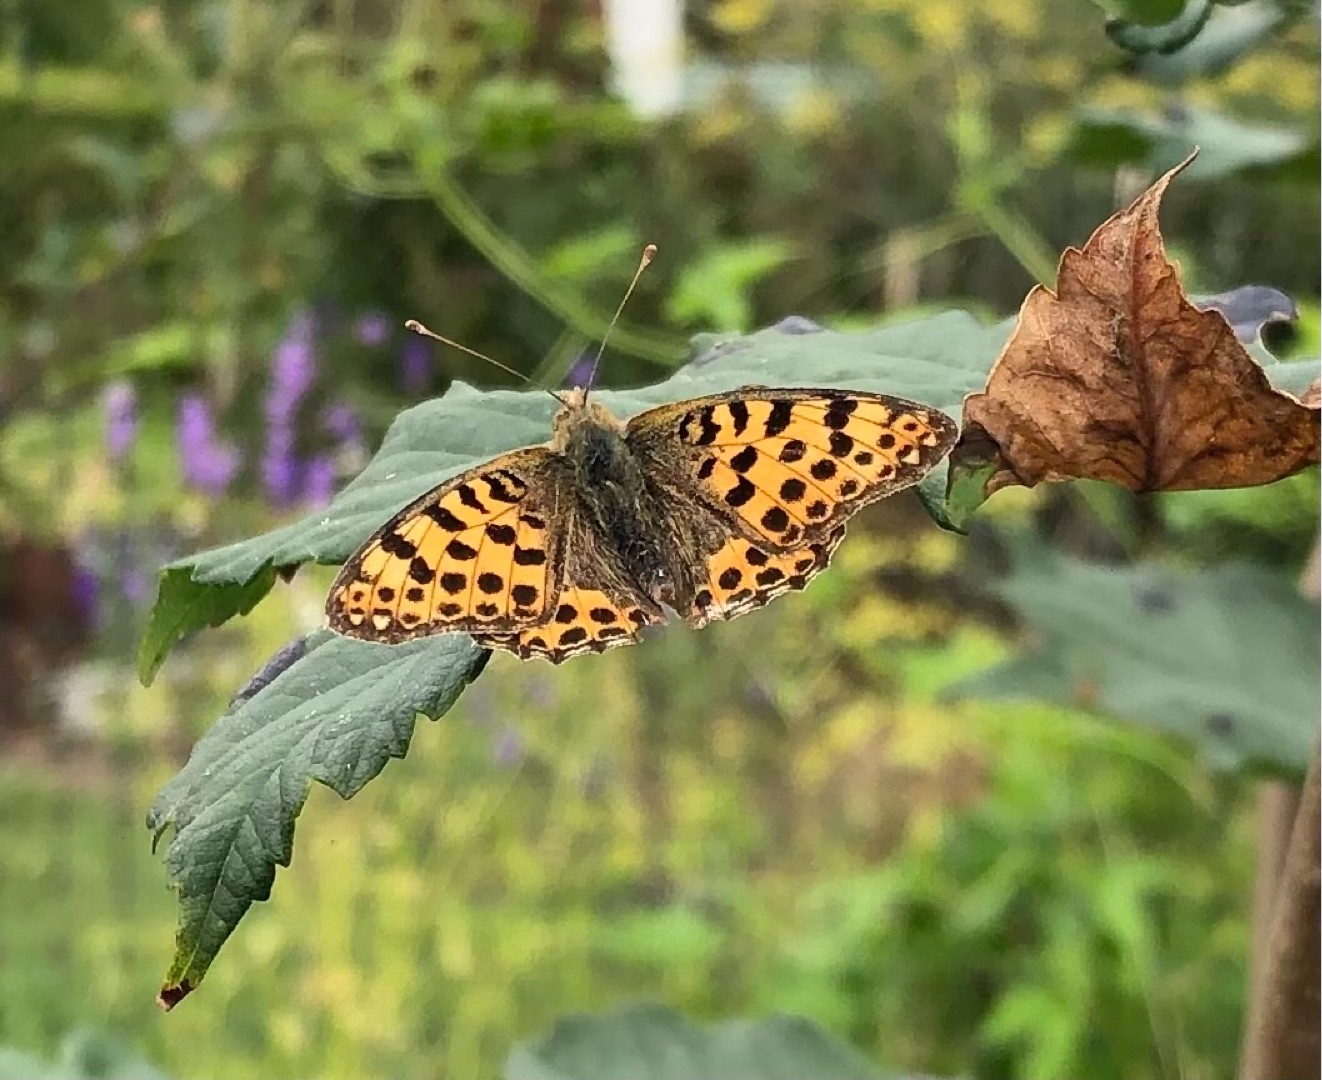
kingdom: Animalia
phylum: Arthropoda
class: Insecta
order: Lepidoptera
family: Nymphalidae
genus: Issoria
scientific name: Issoria lathonia
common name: Storplettet perlemorsommerfugl
